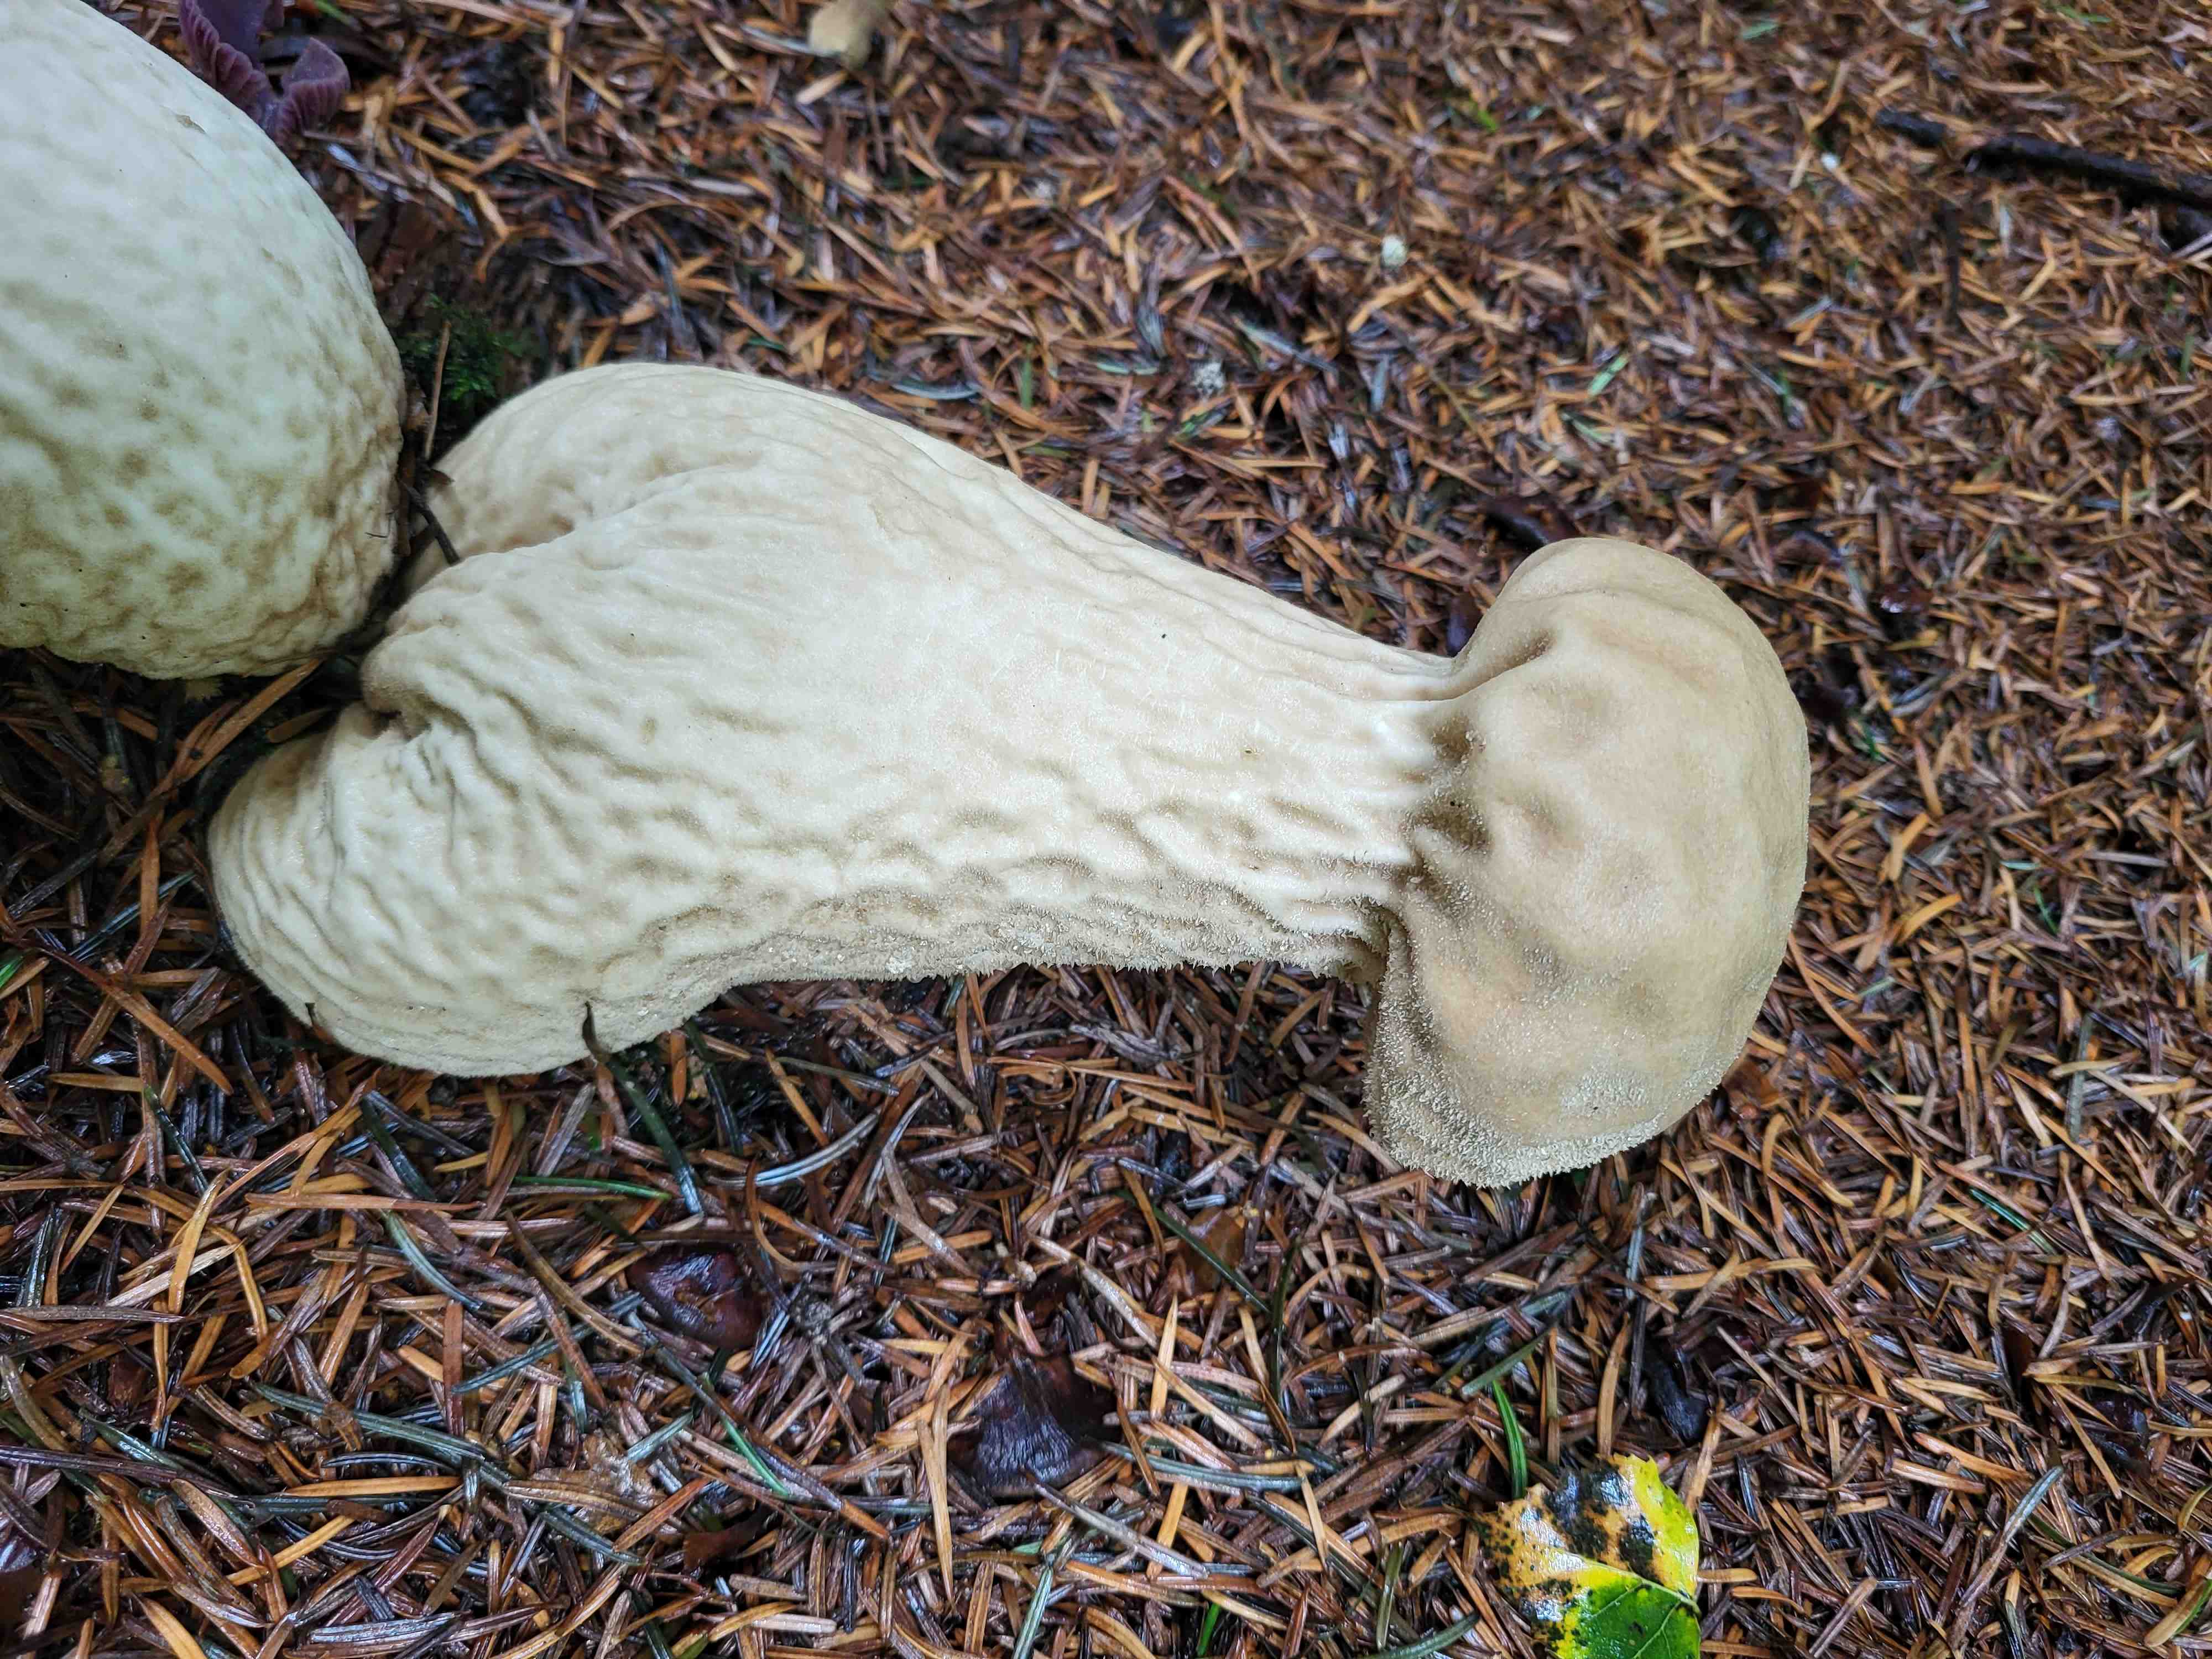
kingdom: Fungi
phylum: Basidiomycota
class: Agaricomycetes
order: Agaricales
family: Lycoperdaceae
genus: Lycoperdon
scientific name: Lycoperdon excipuliforme
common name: højstokket støvbold
